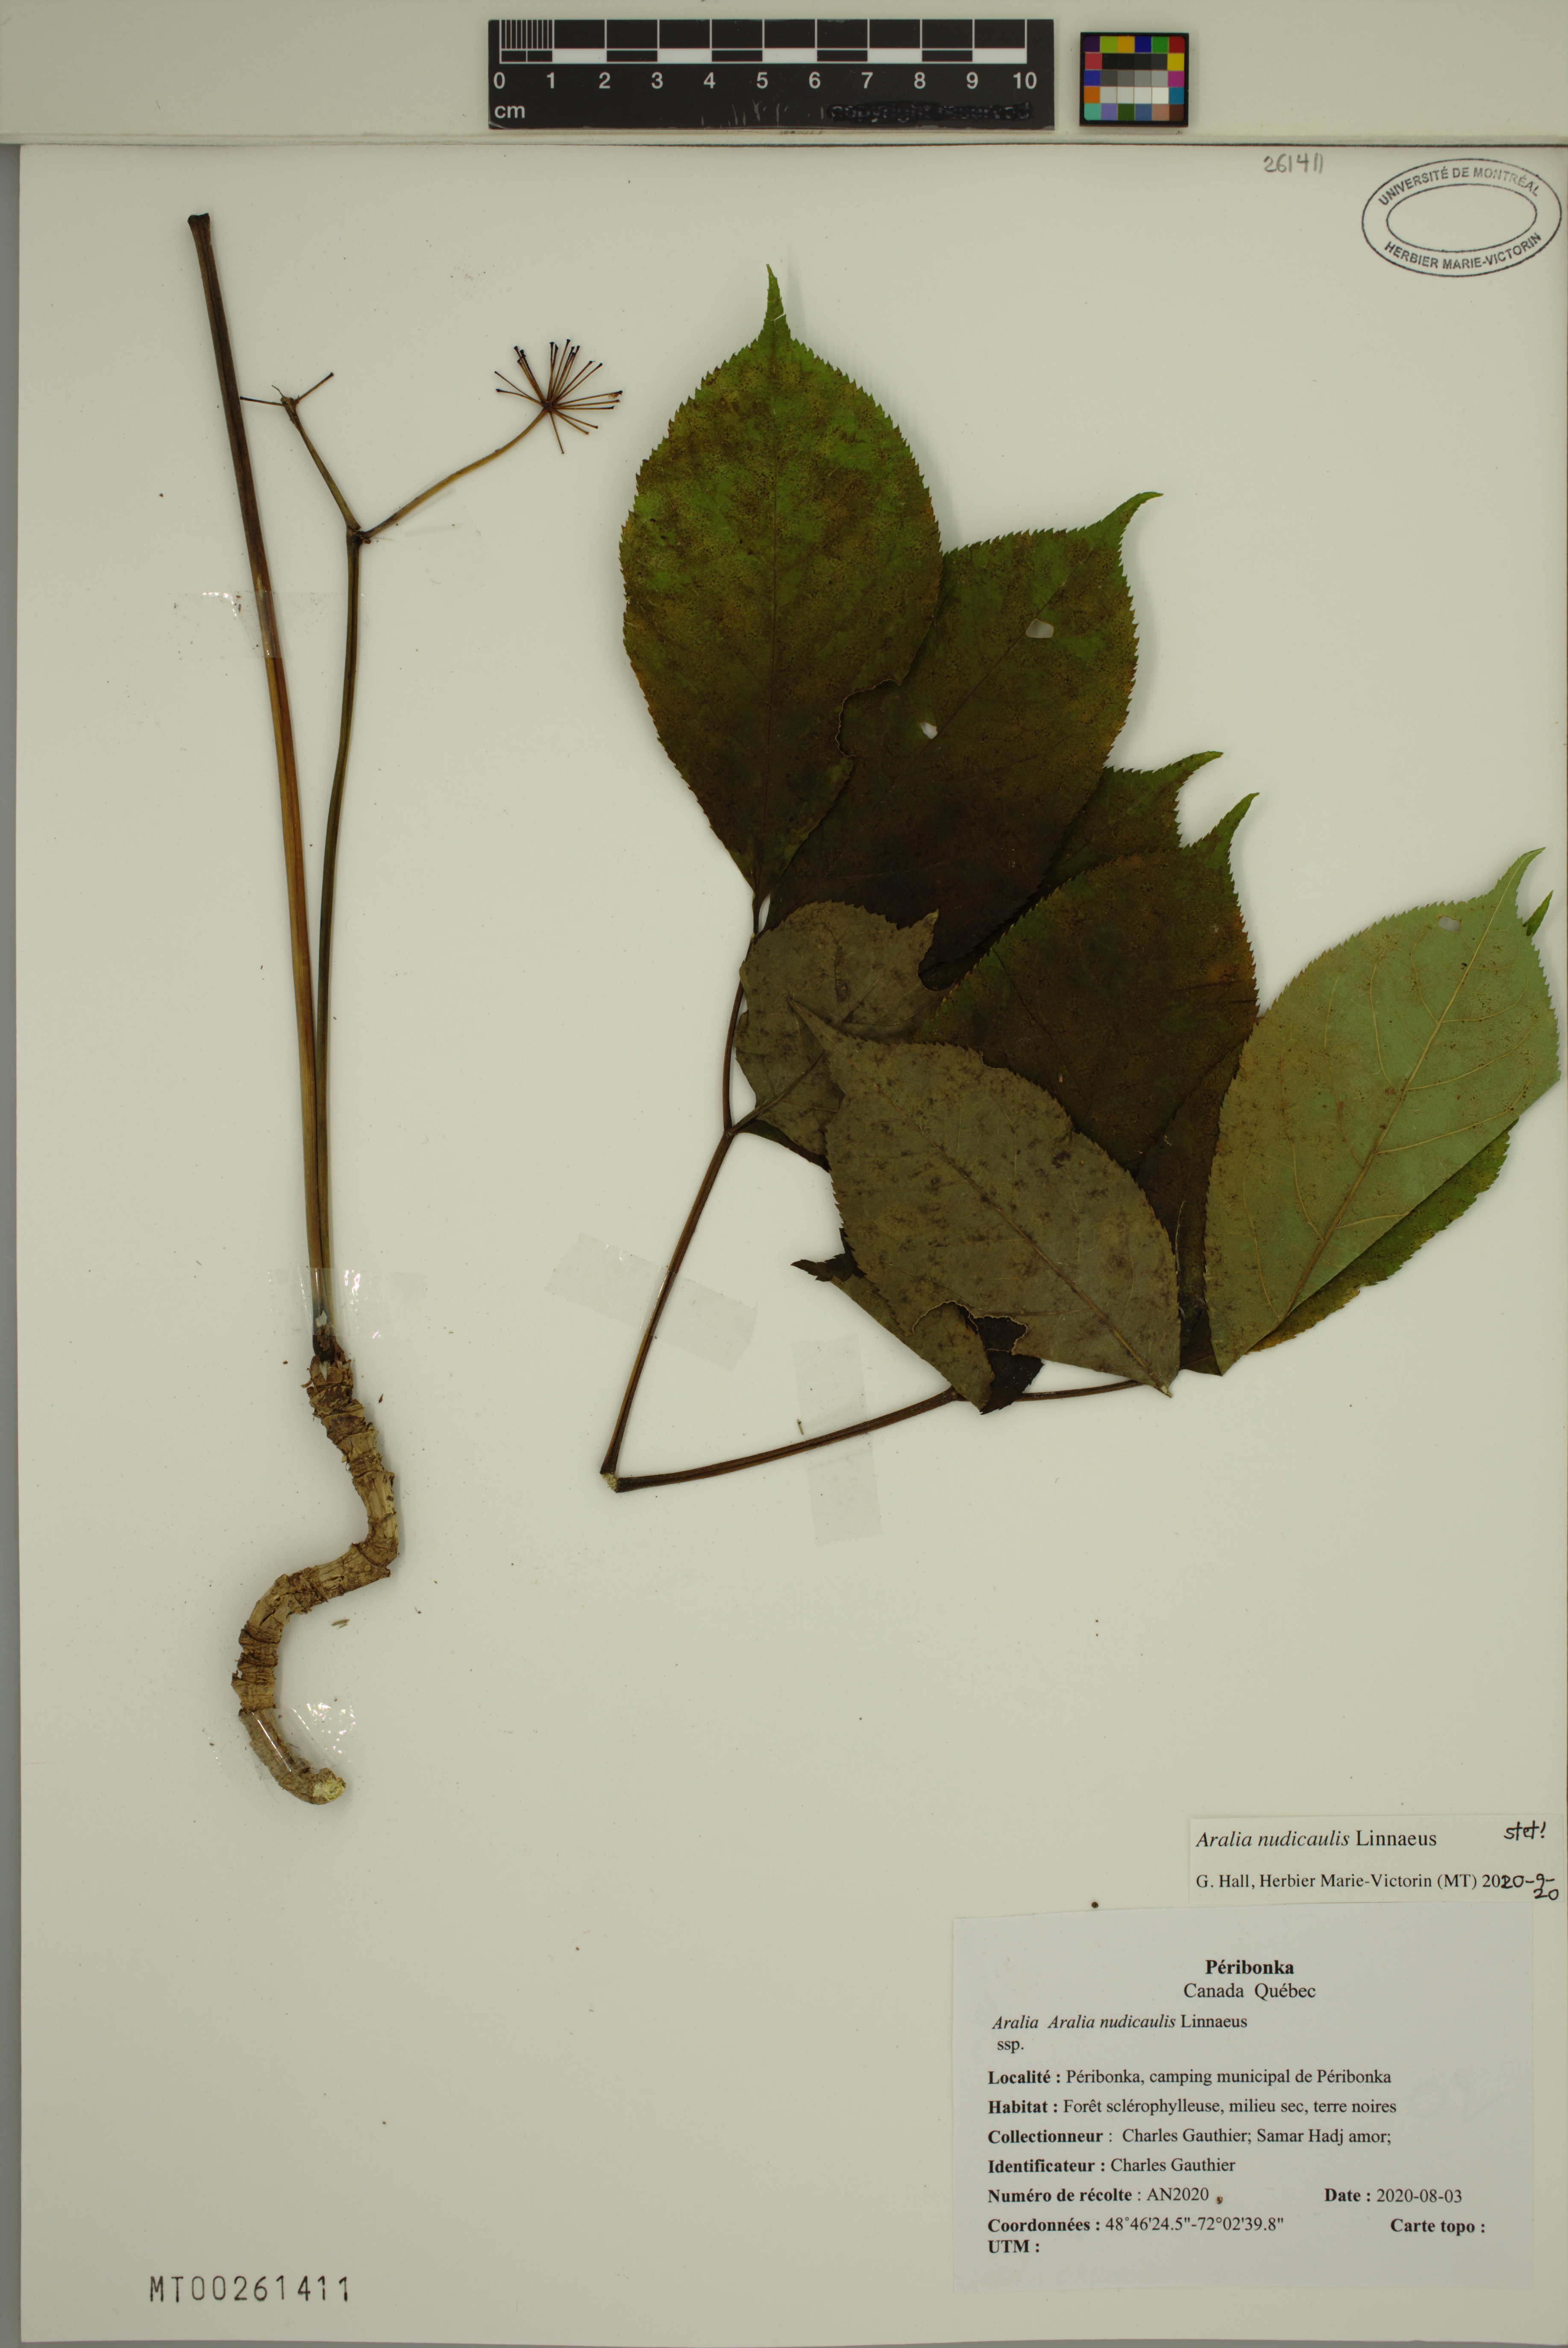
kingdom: Plantae
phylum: Tracheophyta
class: Magnoliopsida
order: Apiales
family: Araliaceae
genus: Aralia
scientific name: Aralia nudicaulis
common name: Wild sarsaparilla
